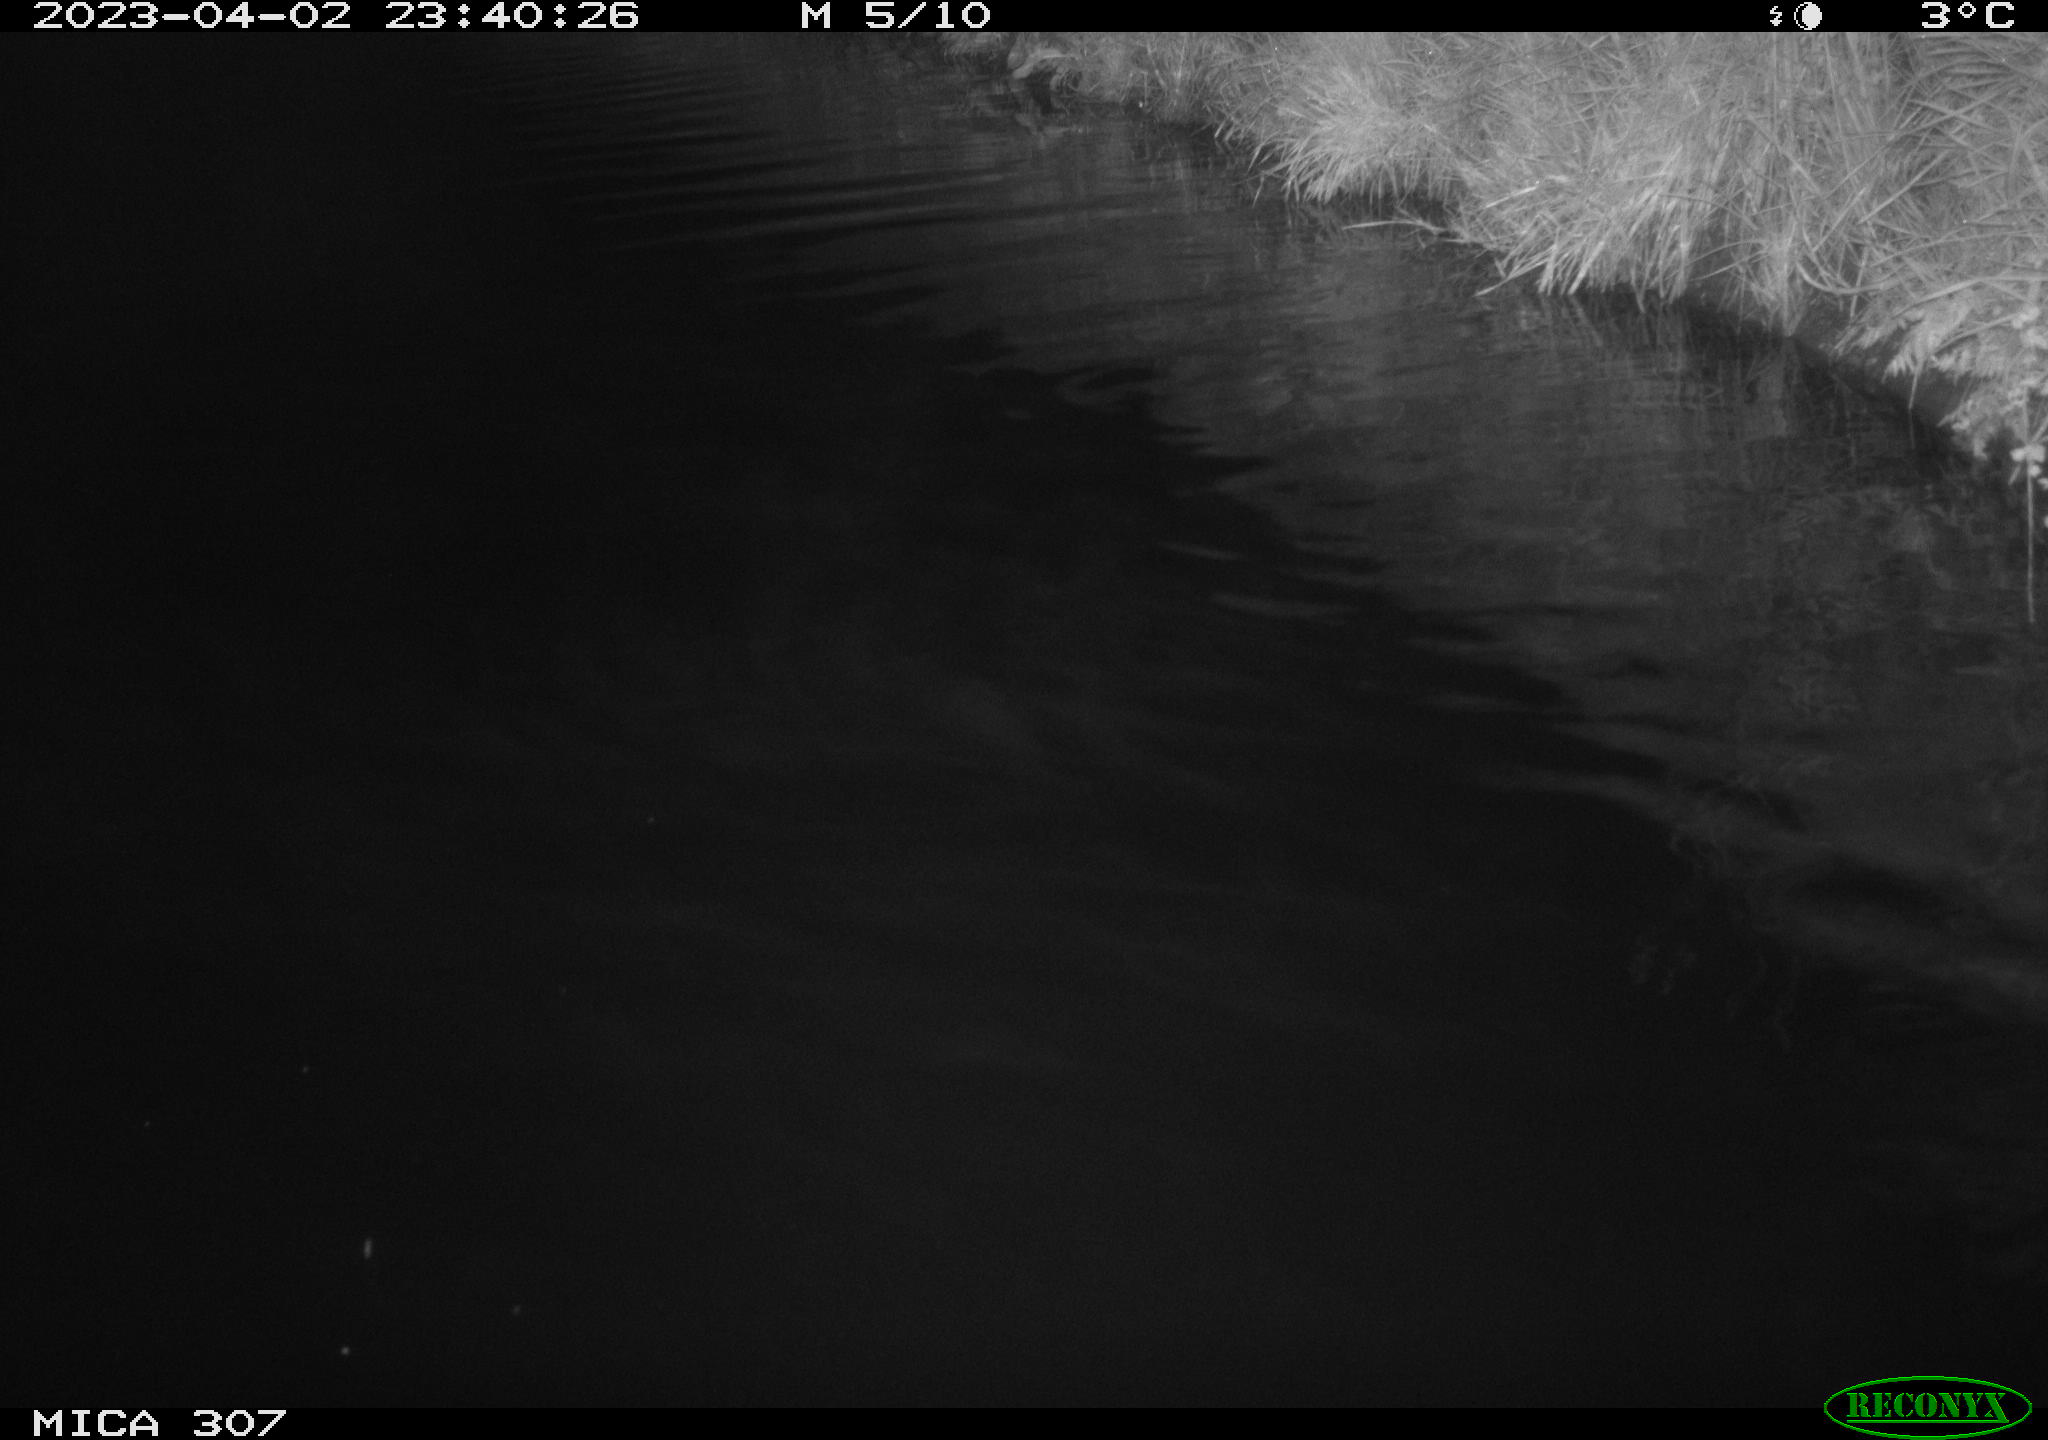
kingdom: Animalia
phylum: Chordata
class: Aves
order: Anseriformes
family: Anatidae
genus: Anas
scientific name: Anas
